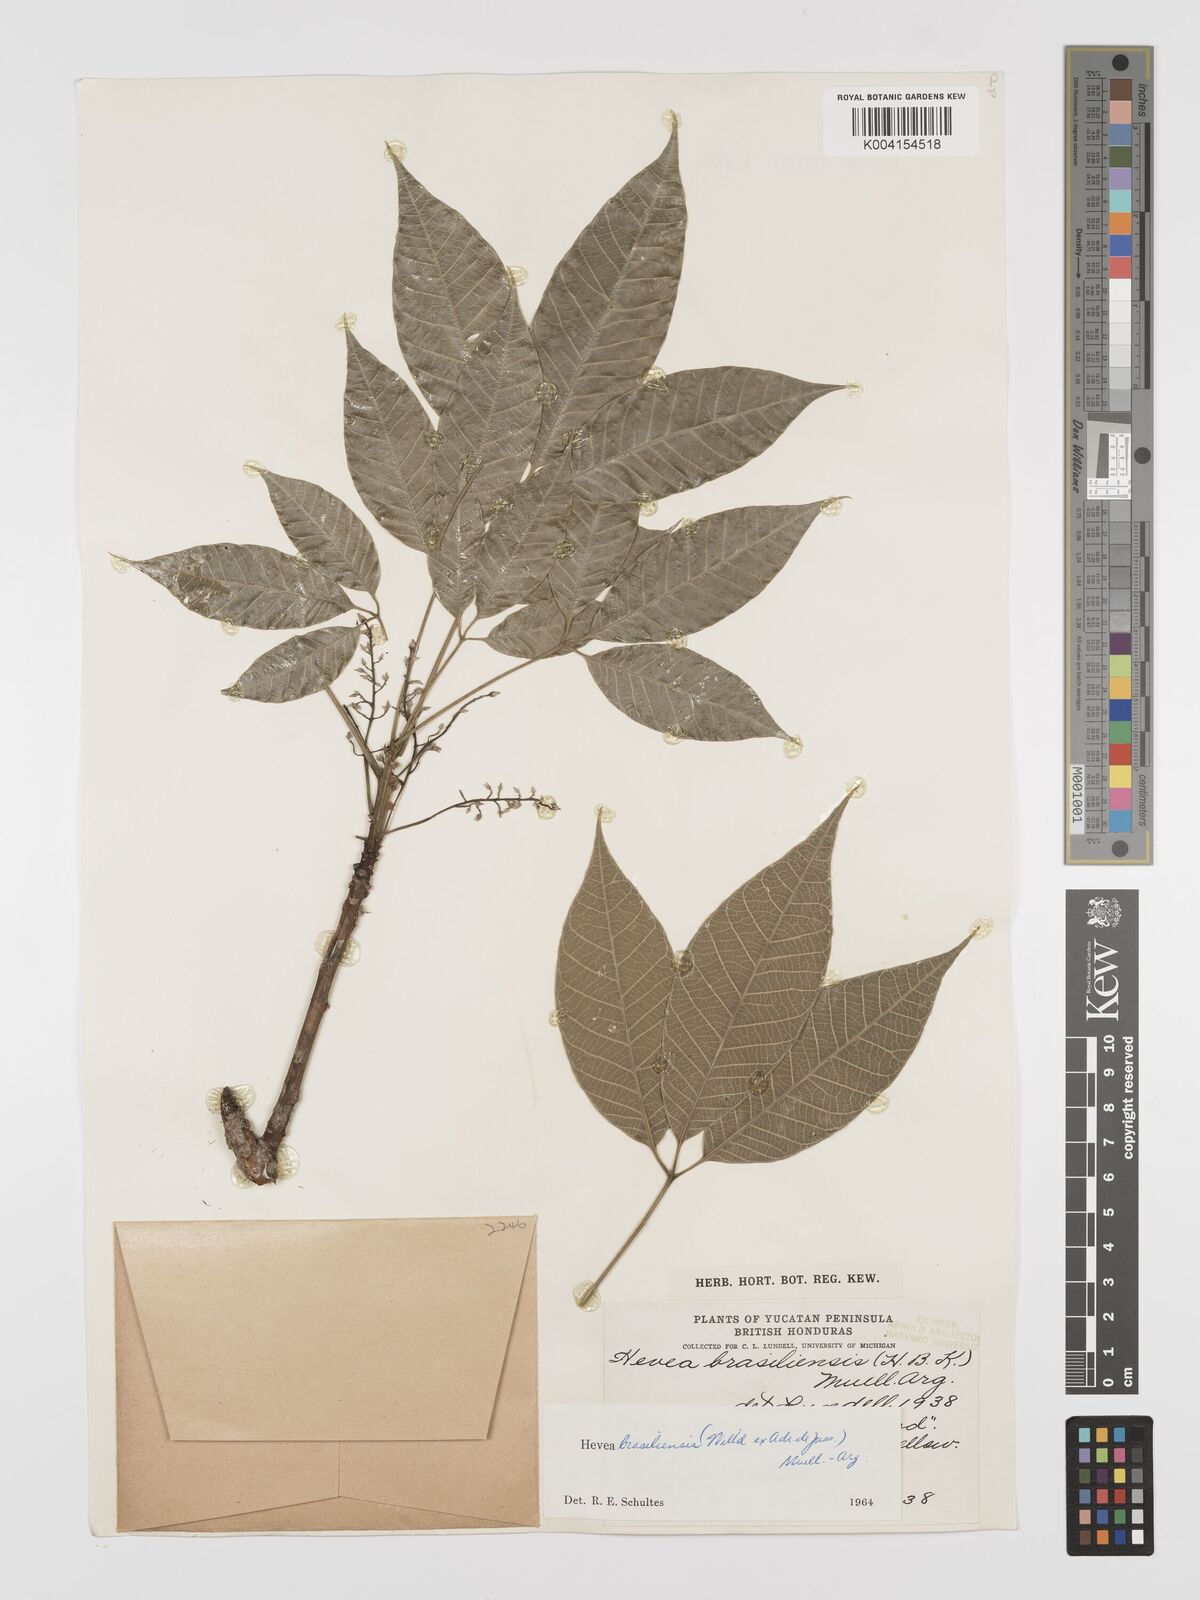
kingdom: Plantae
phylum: Tracheophyta
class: Magnoliopsida
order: Malpighiales
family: Euphorbiaceae
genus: Hevea
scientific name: Hevea brasiliensis
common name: Natural rubber
